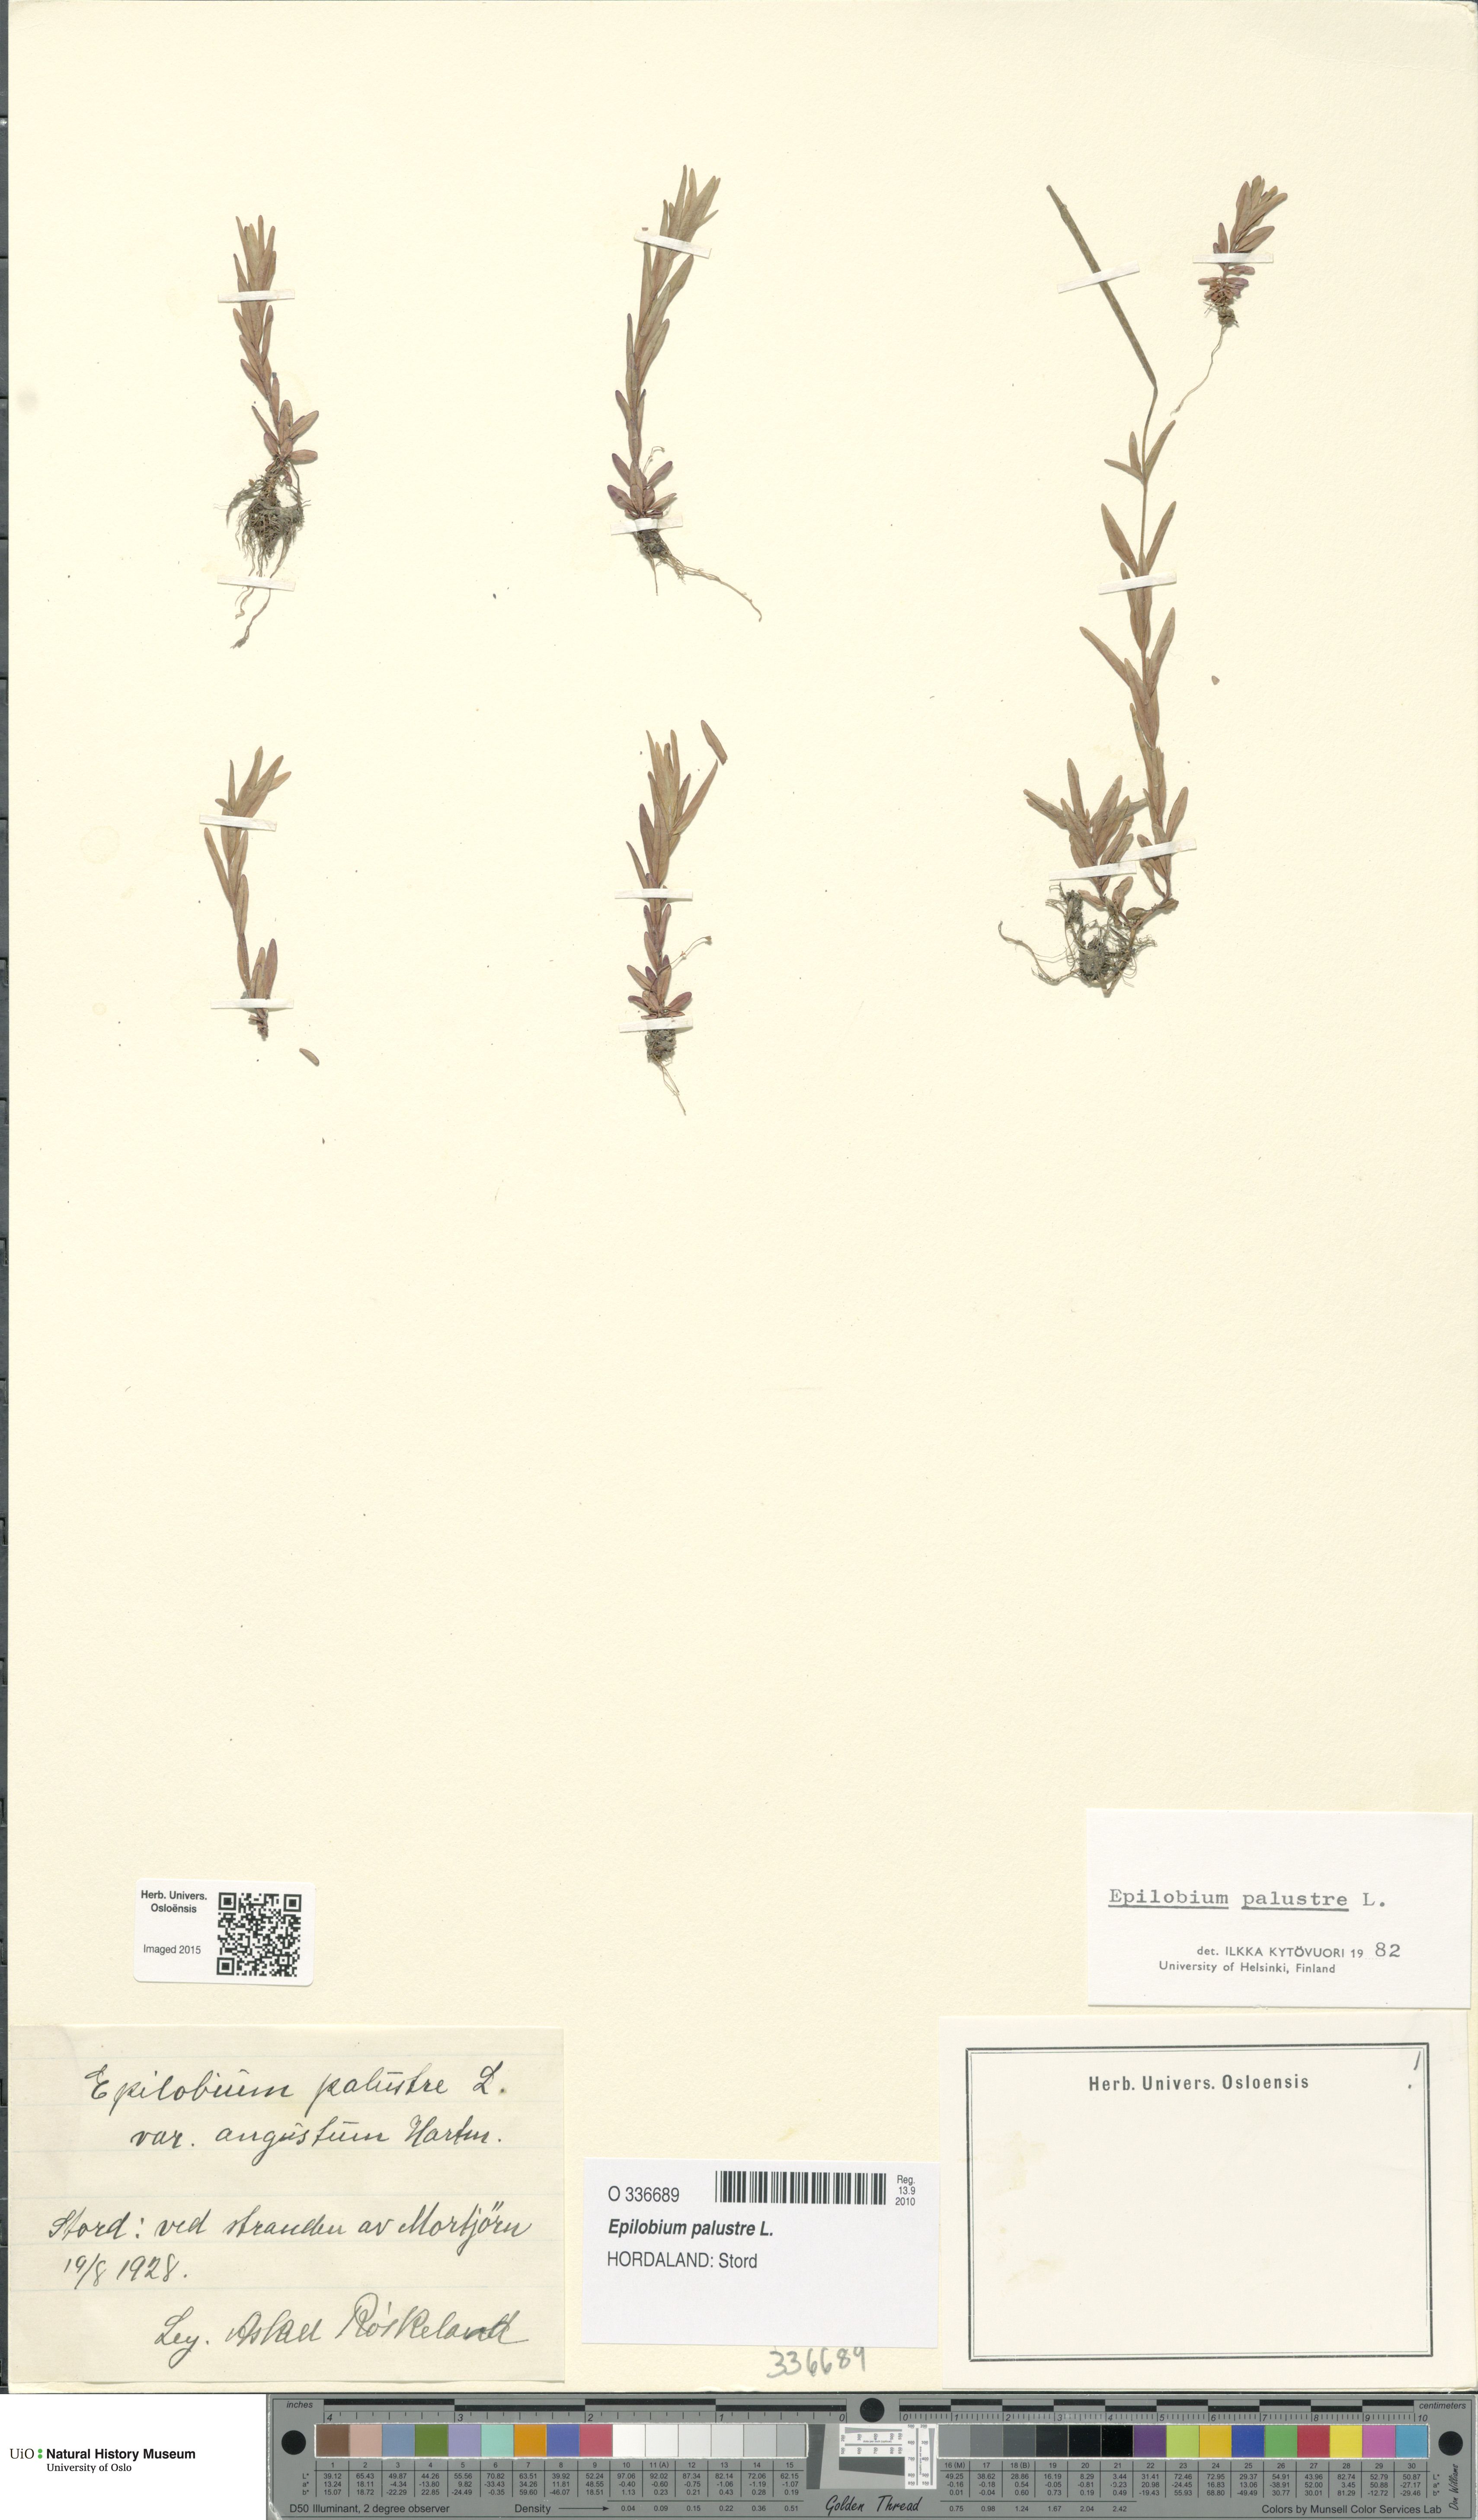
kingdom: Plantae
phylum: Tracheophyta
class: Magnoliopsida
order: Myrtales
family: Onagraceae
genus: Epilobium
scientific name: Epilobium palustre
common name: Marsh willowherb
